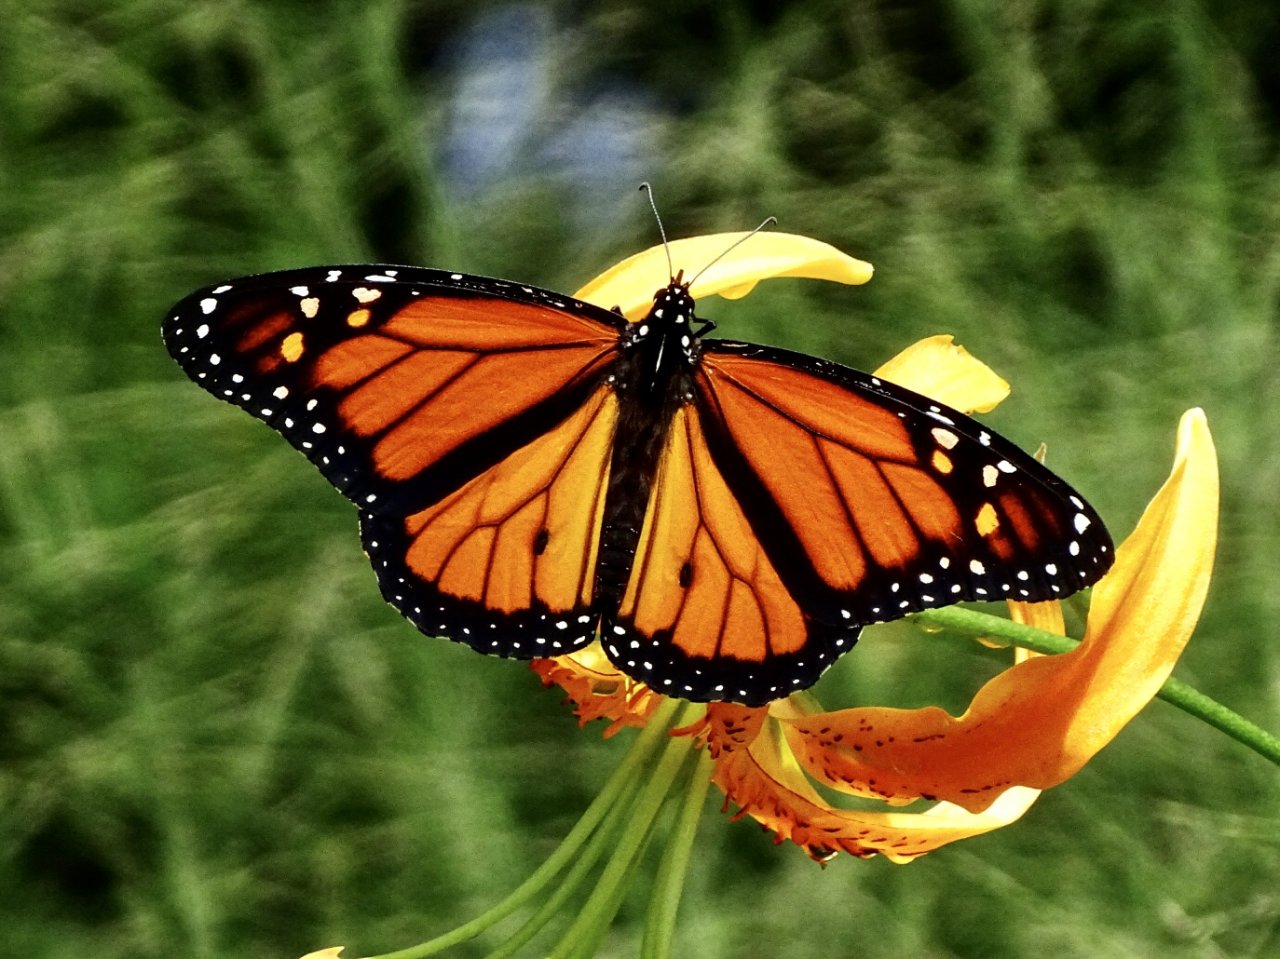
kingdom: Animalia
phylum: Arthropoda
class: Insecta
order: Lepidoptera
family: Nymphalidae
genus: Danaus
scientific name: Danaus plexippus
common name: Monarch
